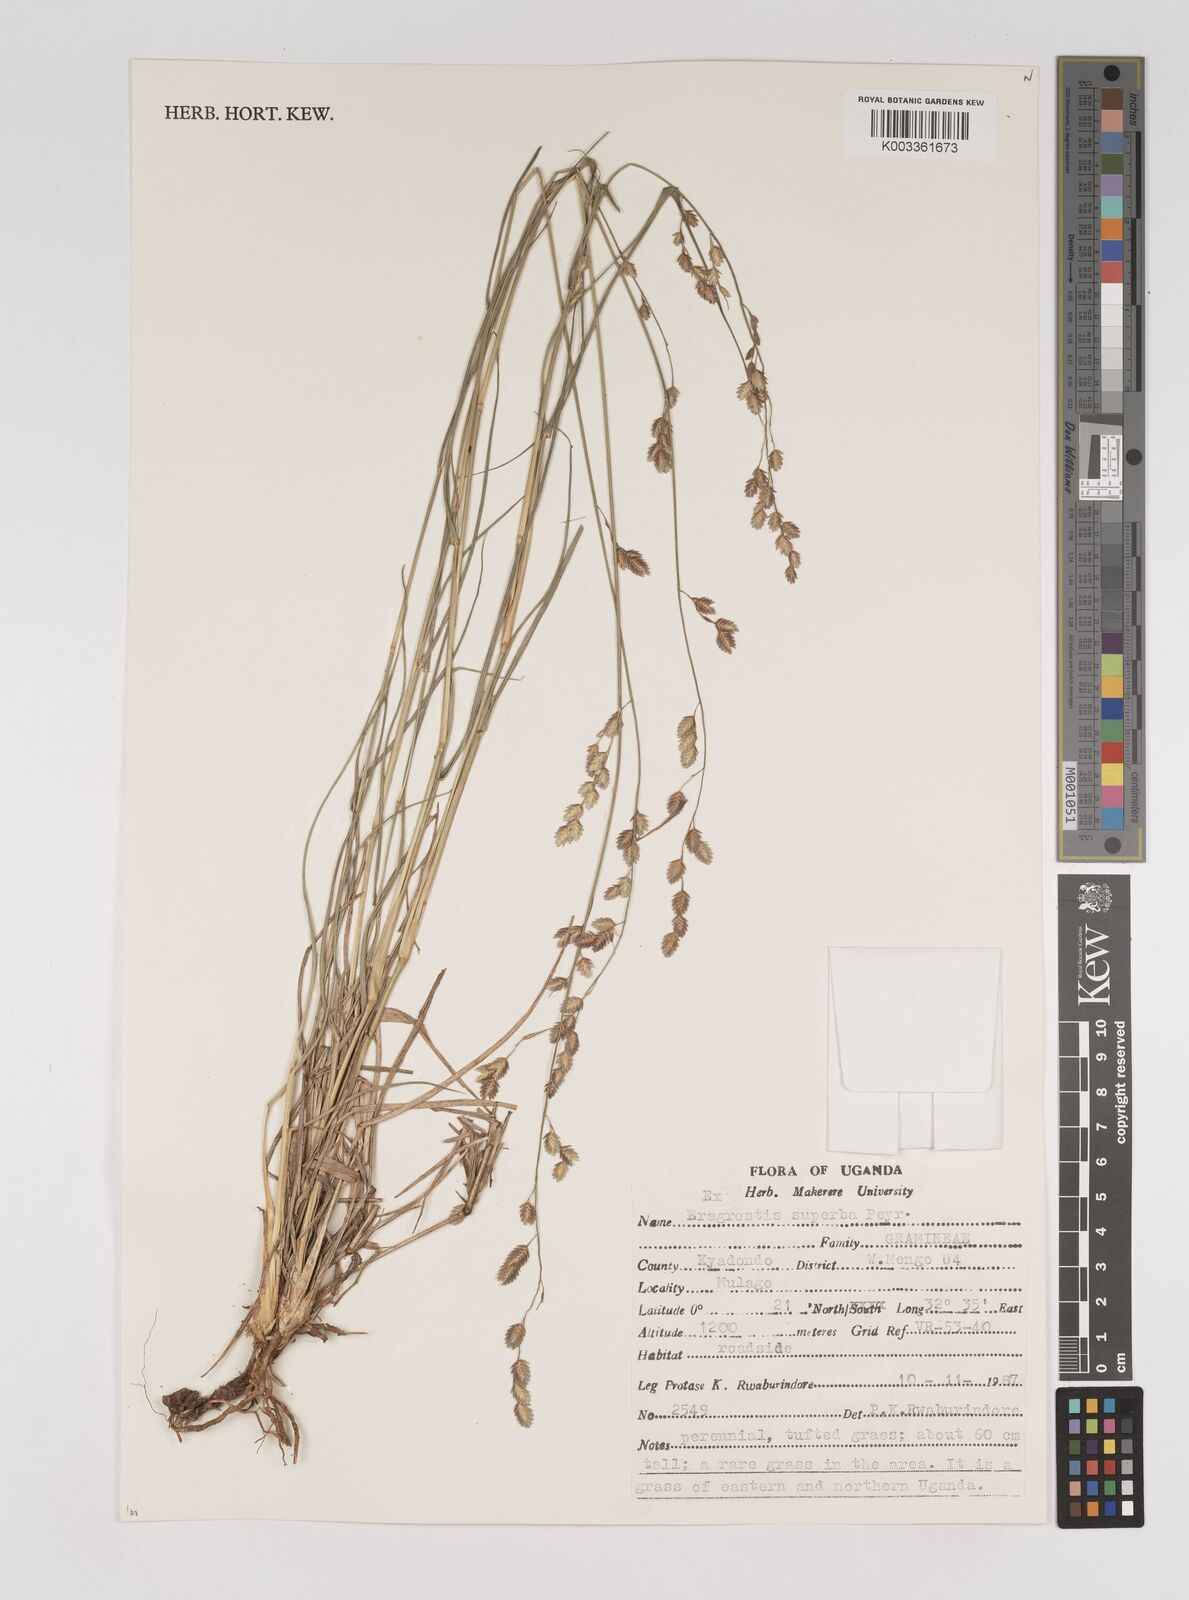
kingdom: Plantae
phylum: Tracheophyta
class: Liliopsida
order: Poales
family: Poaceae
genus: Eragrostis
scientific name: Eragrostis superba
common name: Wilman lovegrass
